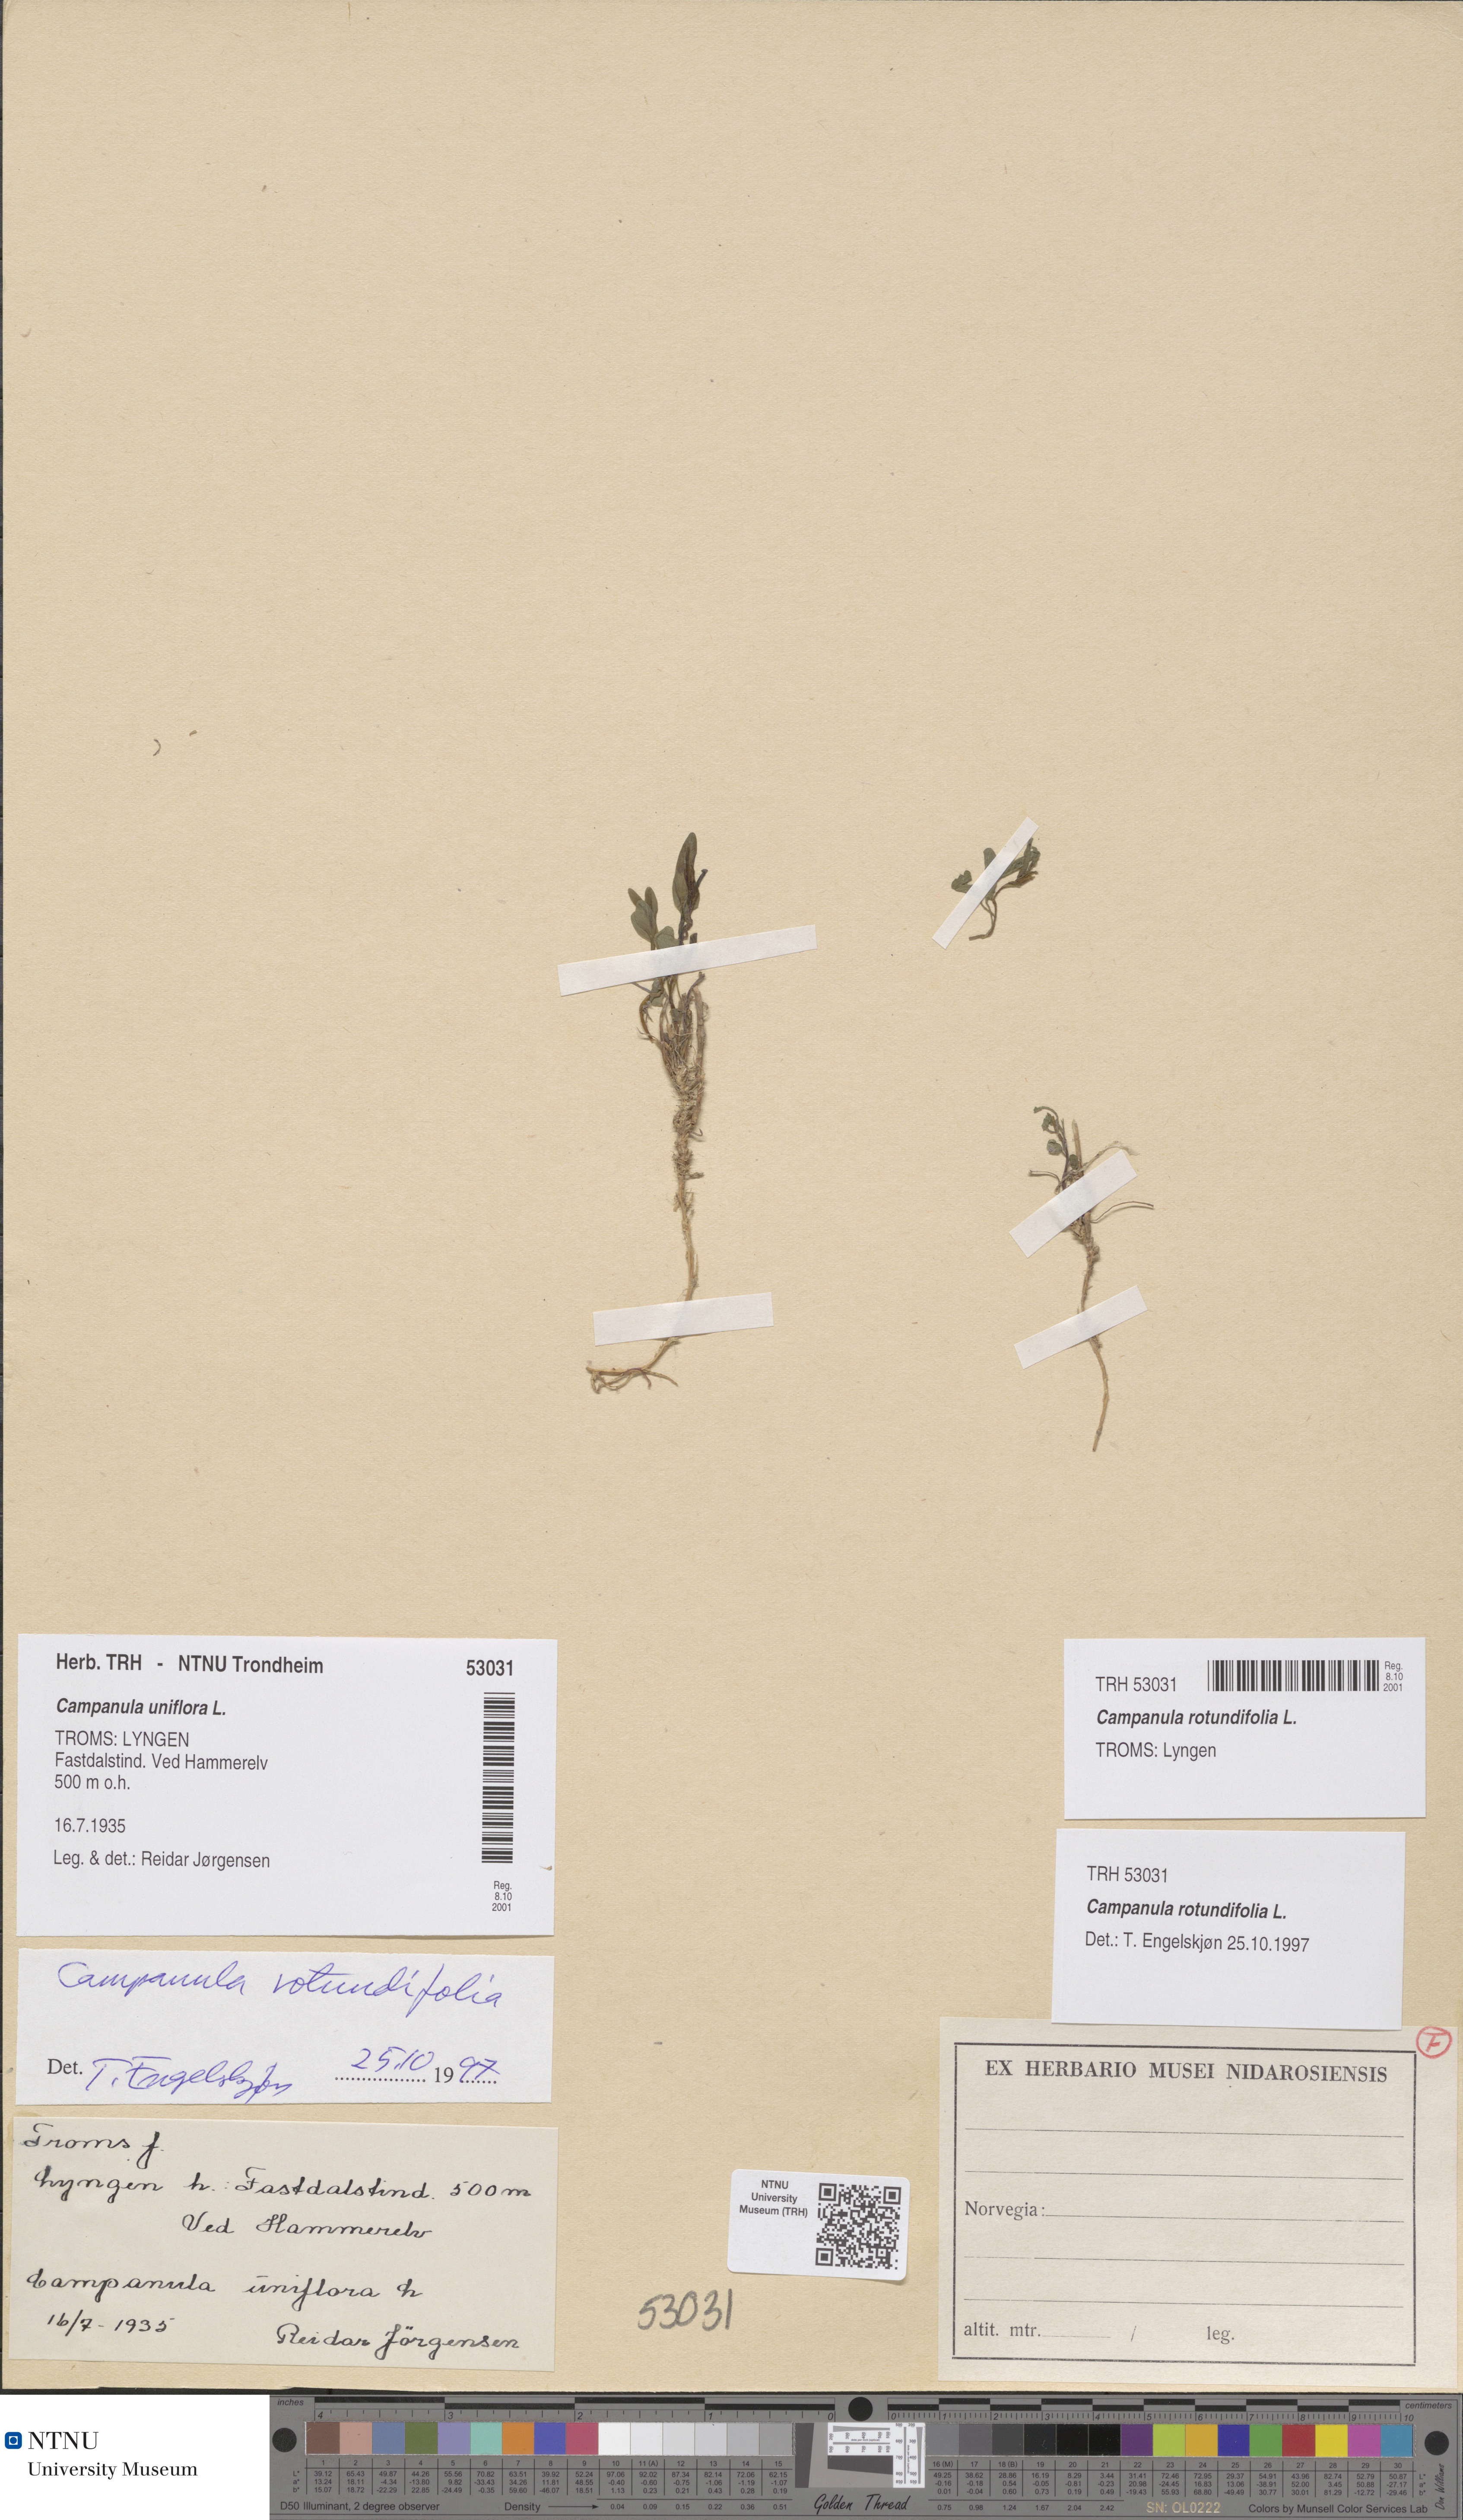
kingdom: Plantae
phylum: Tracheophyta
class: Magnoliopsida
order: Asterales
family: Campanulaceae
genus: Campanula
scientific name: Campanula rotundifolia
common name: Harebell
